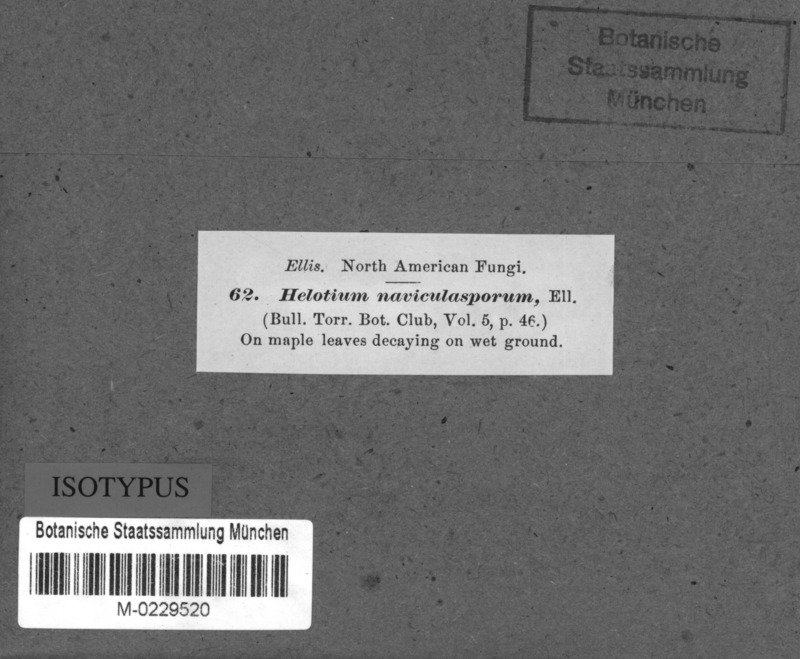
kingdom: Fungi
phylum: Ascomycota
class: Leotiomycetes
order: Helotiales
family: Helotiaceae
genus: Hymenoscyphus
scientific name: Hymenoscyphus caudatus
